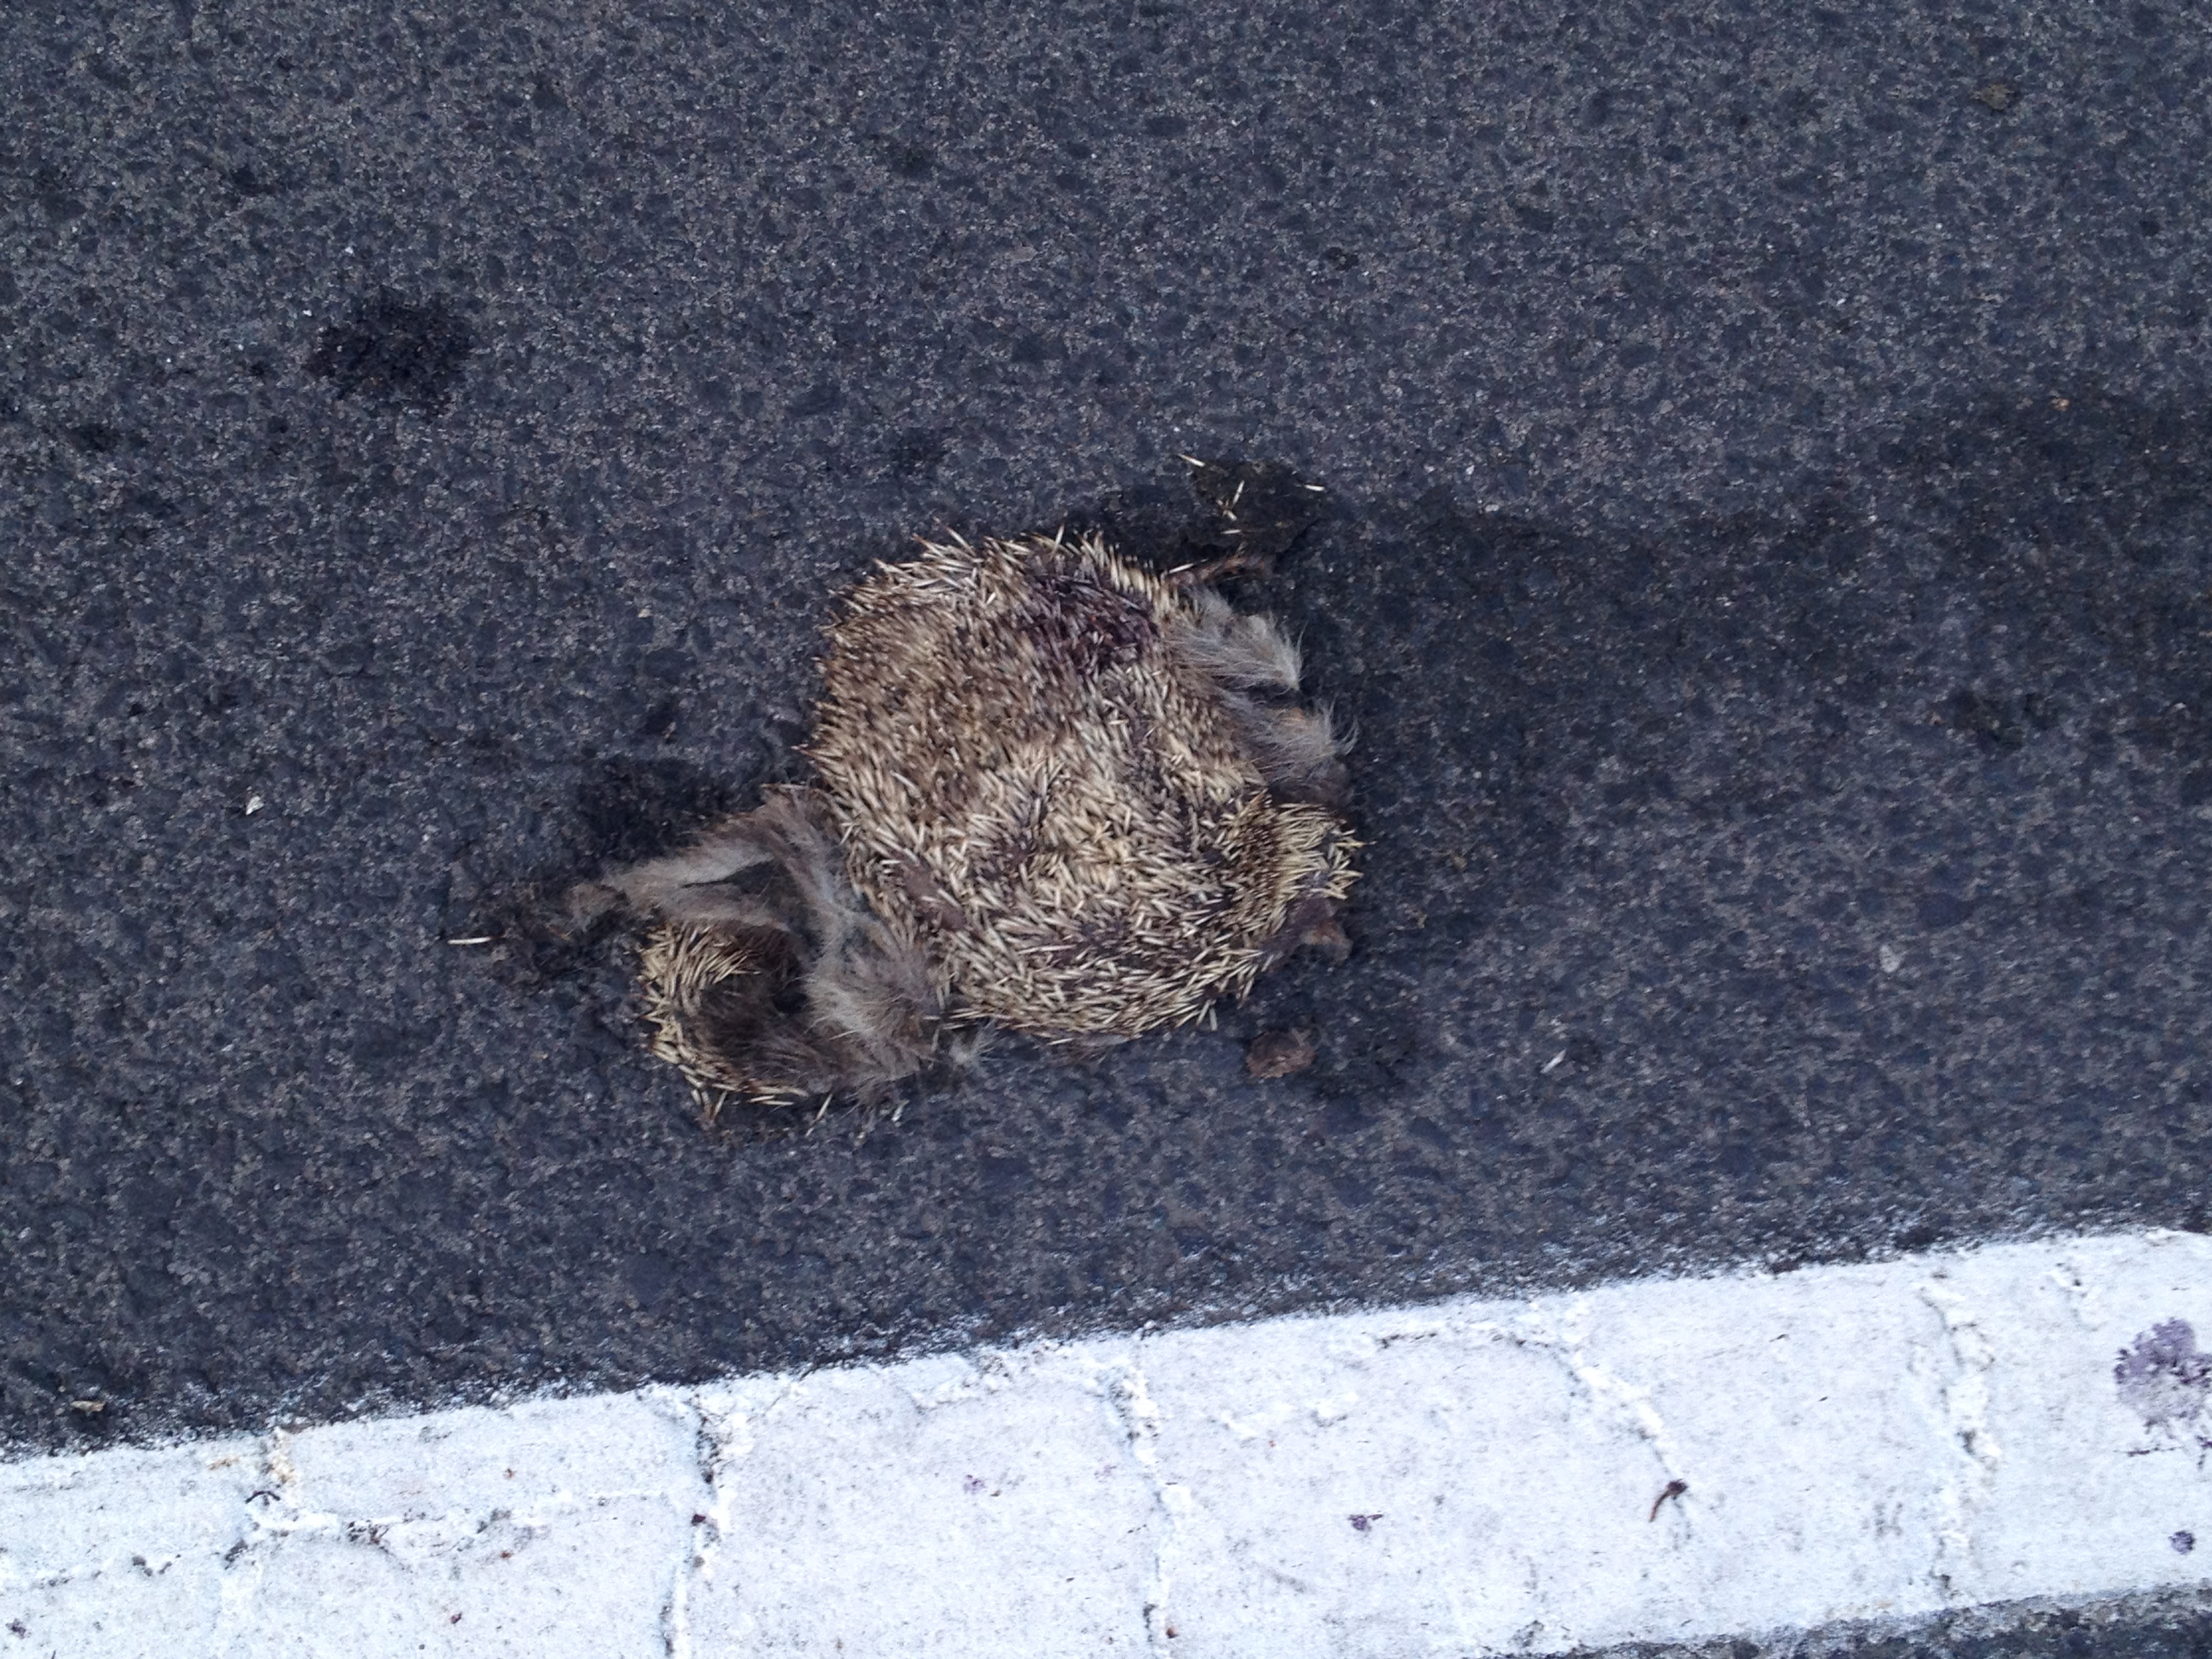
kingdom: Animalia
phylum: Chordata
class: Mammalia
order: Erinaceomorpha
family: Erinaceidae
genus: Erinaceus
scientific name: Erinaceus
